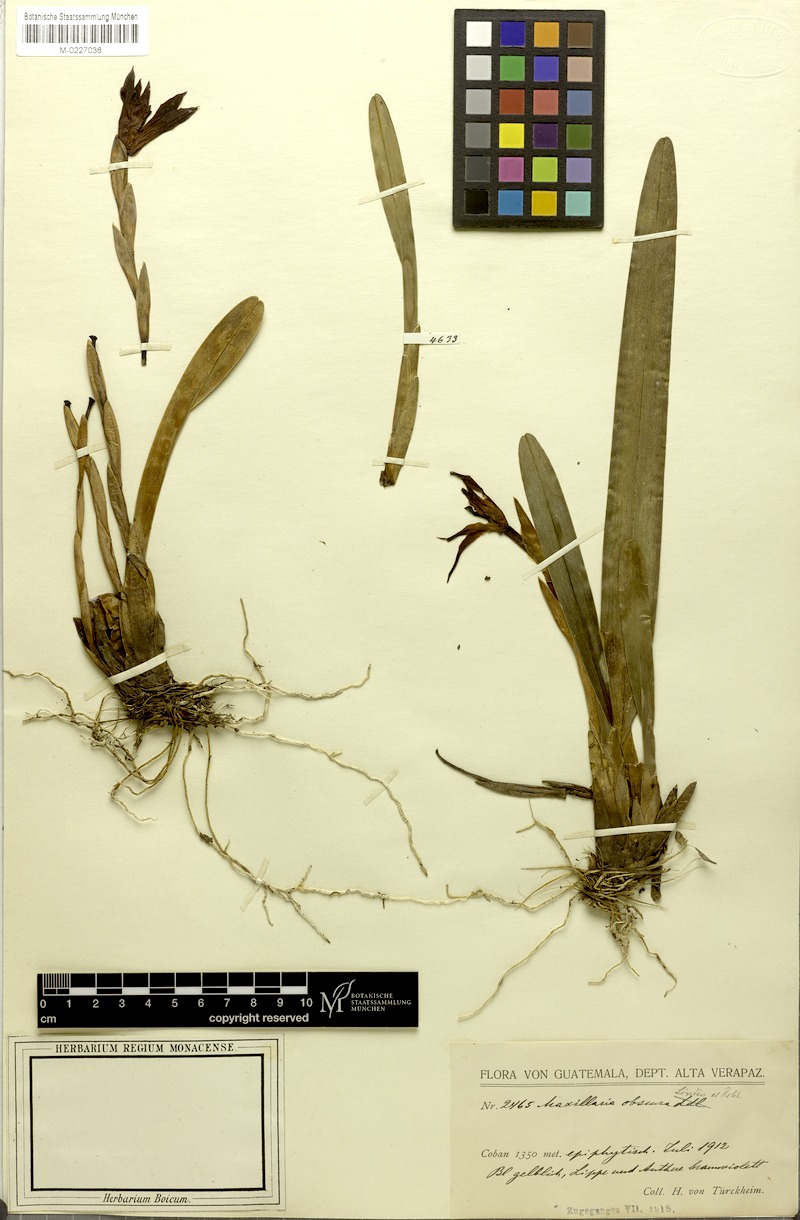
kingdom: Plantae
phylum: Tracheophyta
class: Liliopsida
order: Asparagales
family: Orchidaceae
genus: Maxillaria
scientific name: Maxillaria obscura
